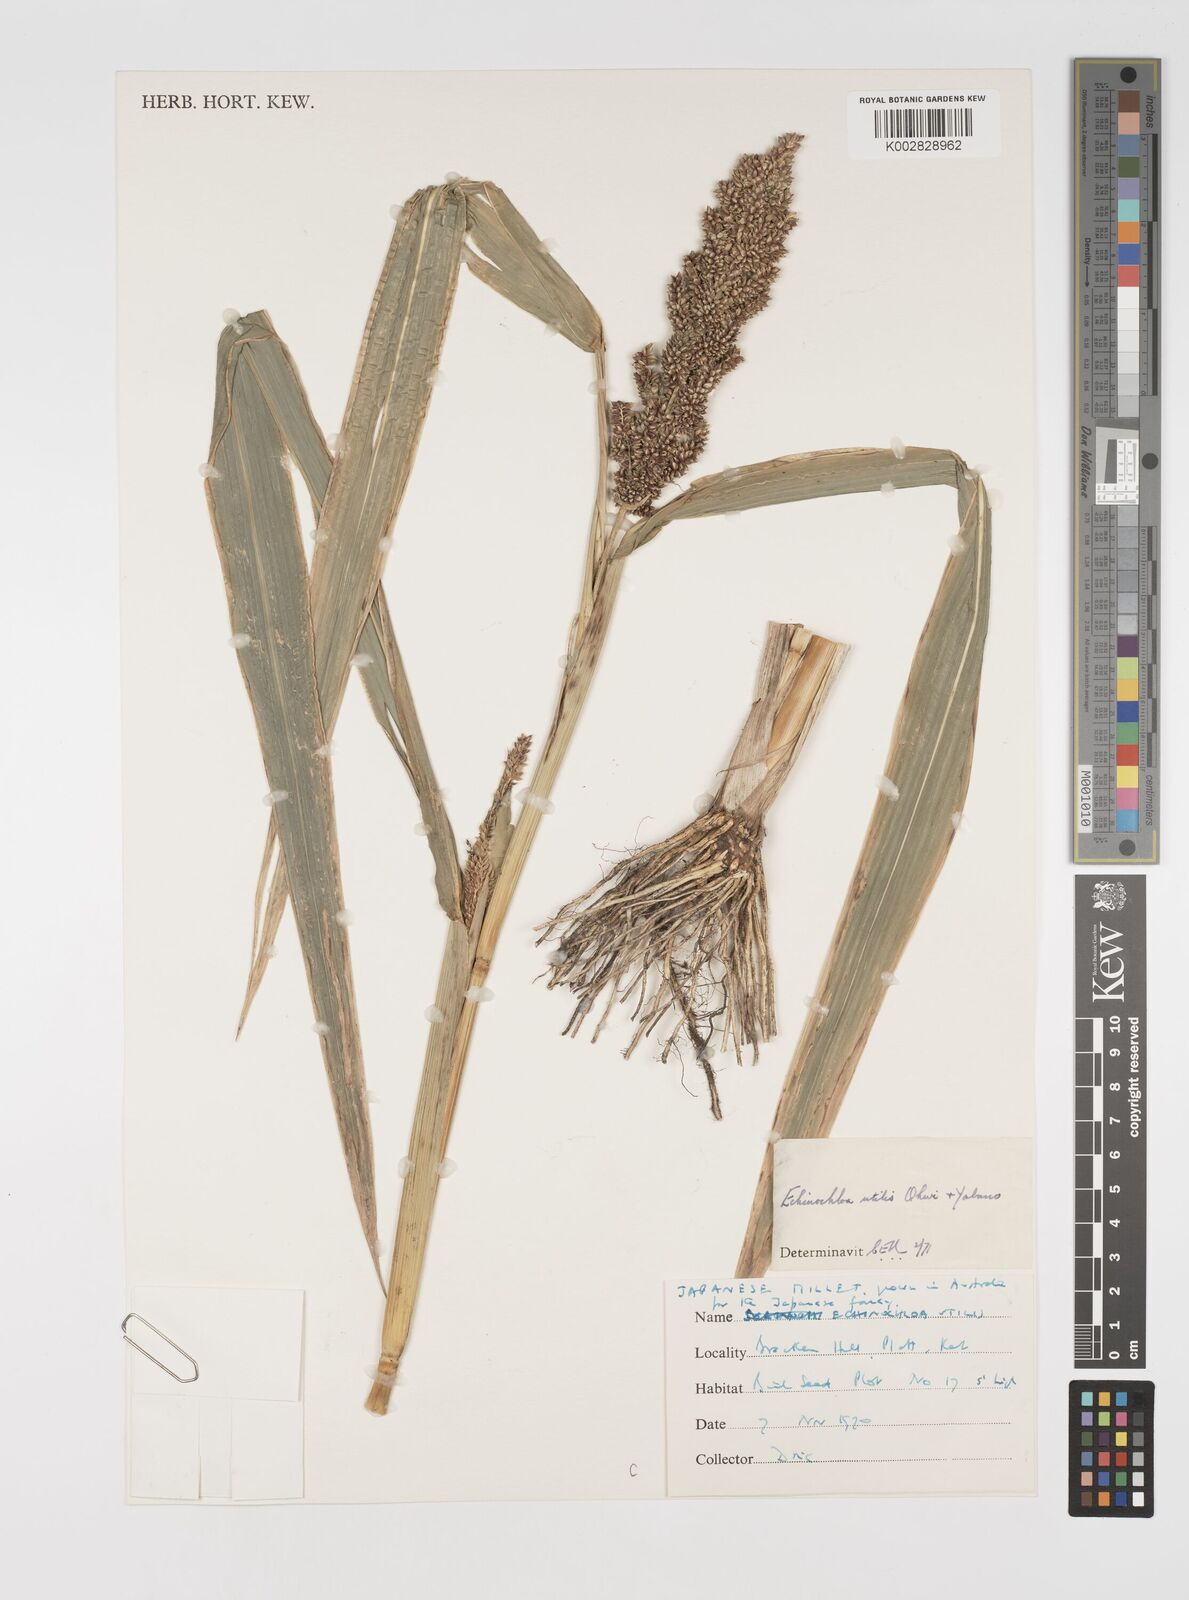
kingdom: Plantae
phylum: Tracheophyta
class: Liliopsida
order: Poales
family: Poaceae
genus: Echinochloa
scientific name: Echinochloa crus-galli
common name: Cockspur
